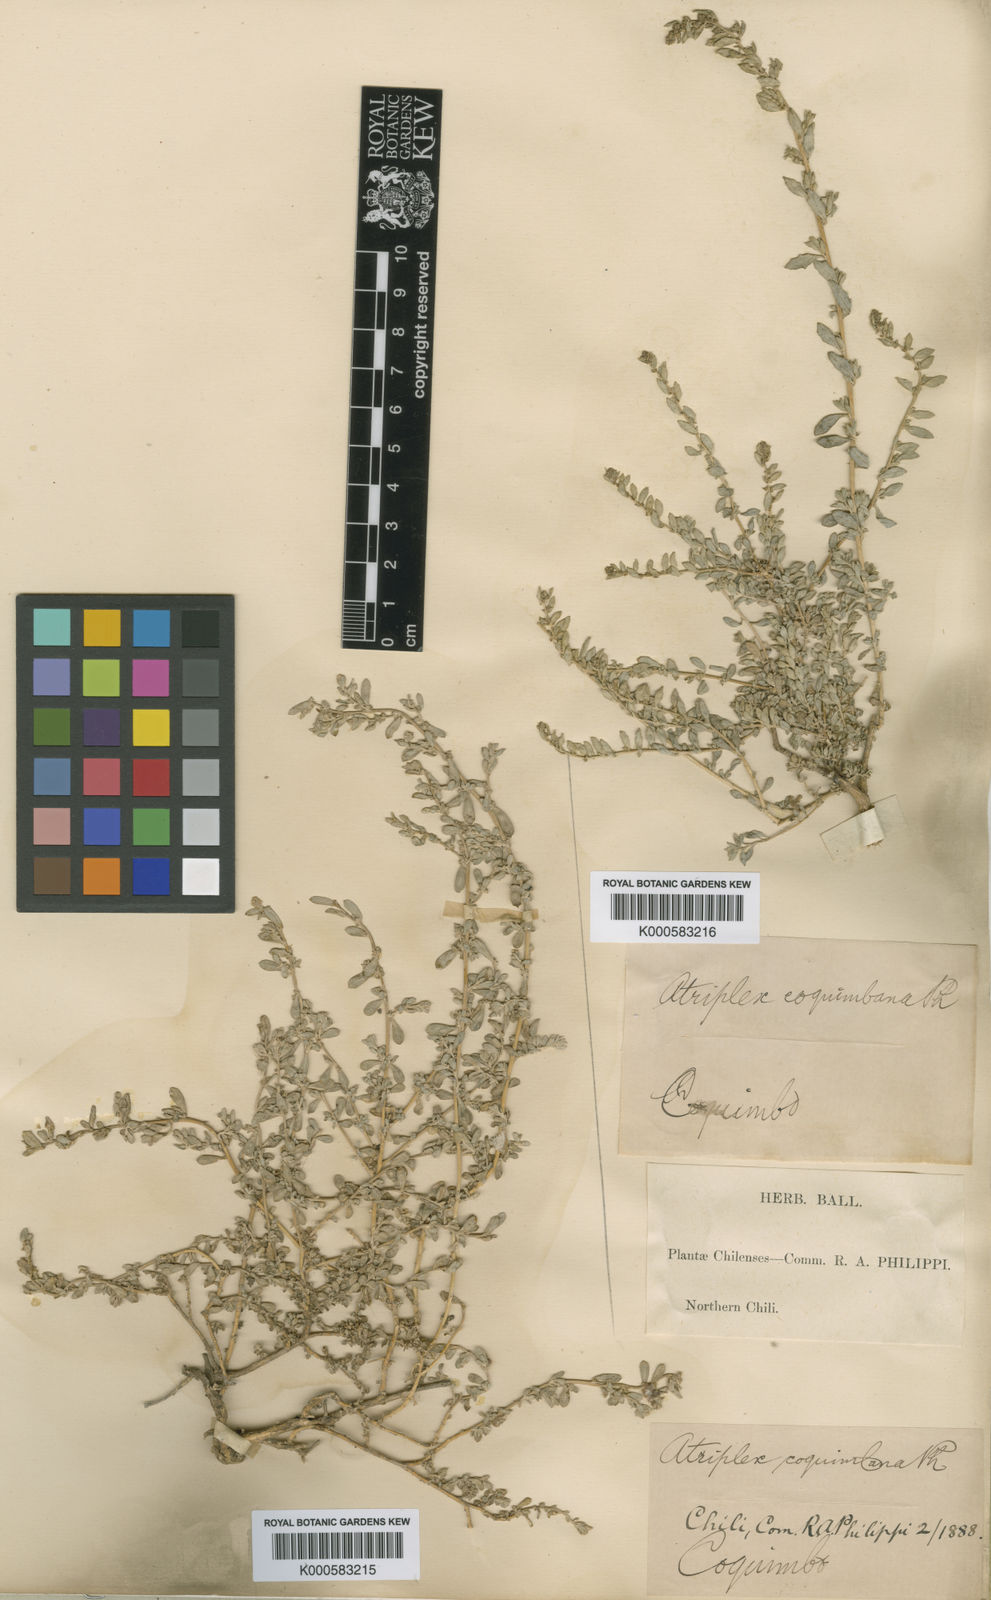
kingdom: Plantae
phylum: Tracheophyta
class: Magnoliopsida
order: Caryophyllales
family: Amaranthaceae
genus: Atriplex
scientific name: Atriplex coquimbana
